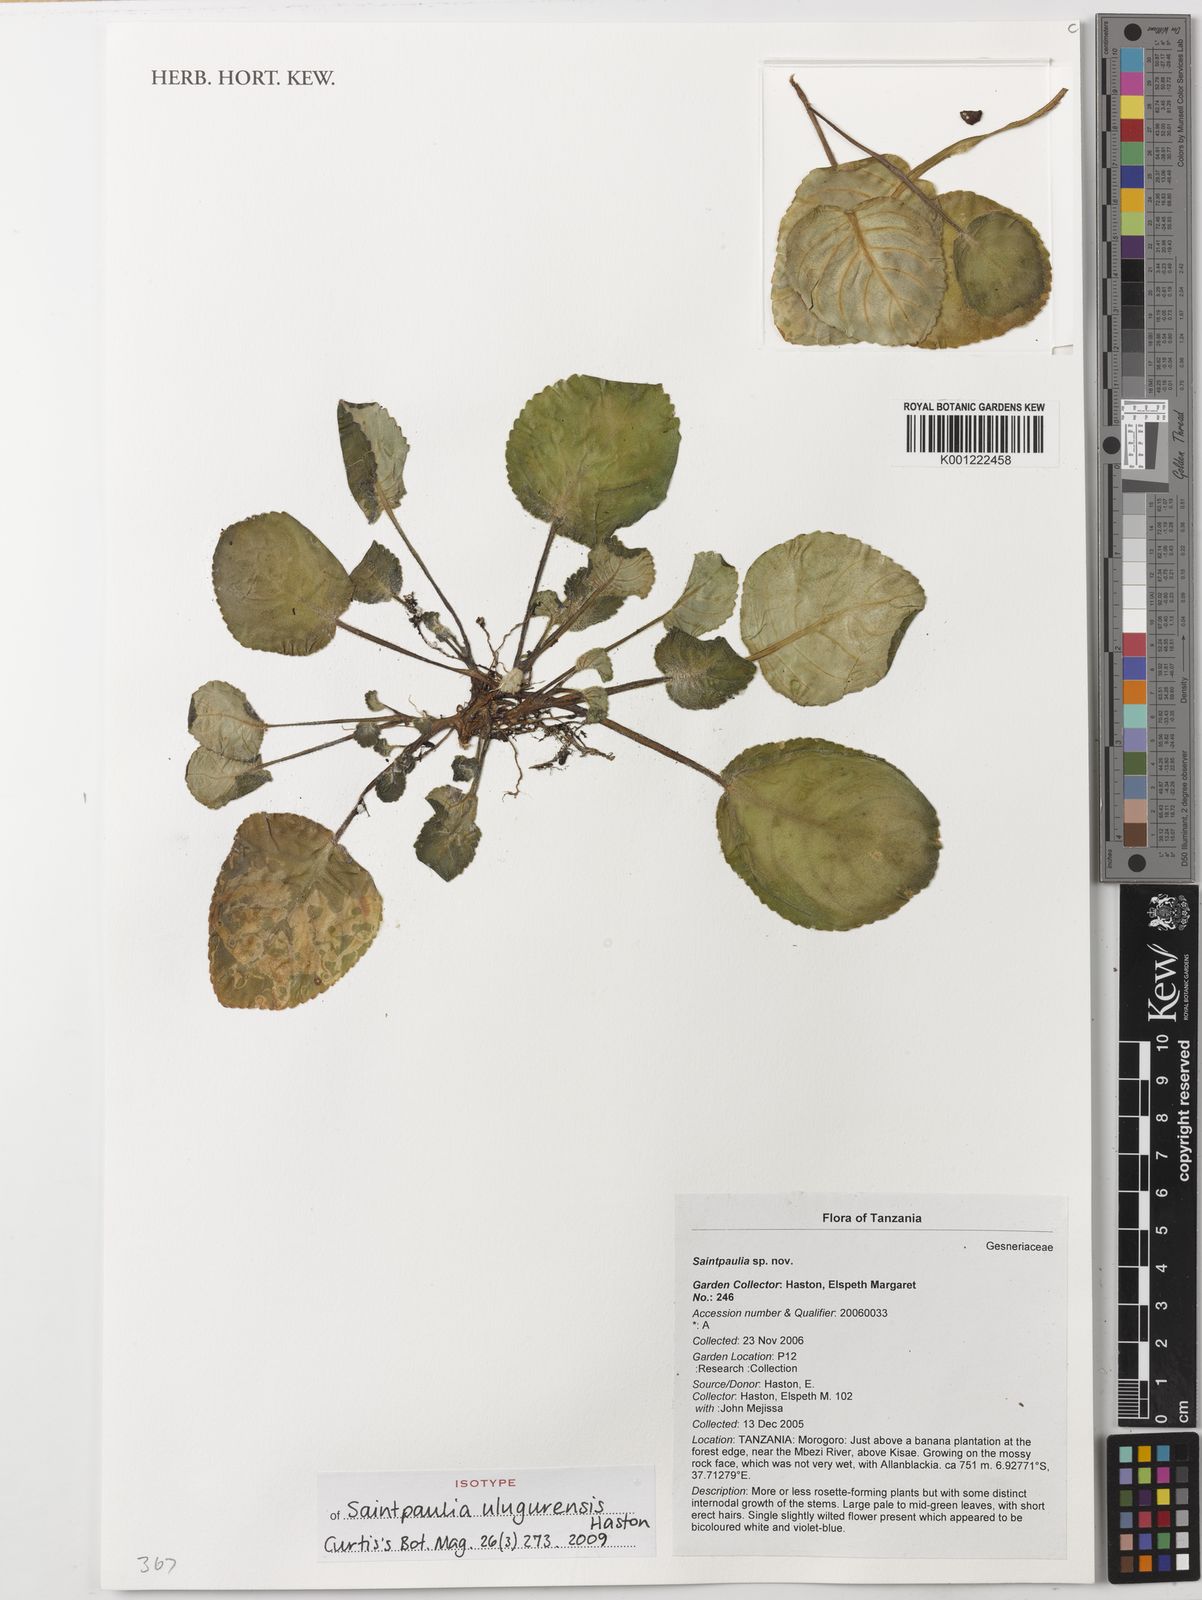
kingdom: Plantae
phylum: Tracheophyta
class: Magnoliopsida
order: Lamiales
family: Gesneriaceae
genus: Streptocarpus
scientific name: Streptocarpus ulugurensis
